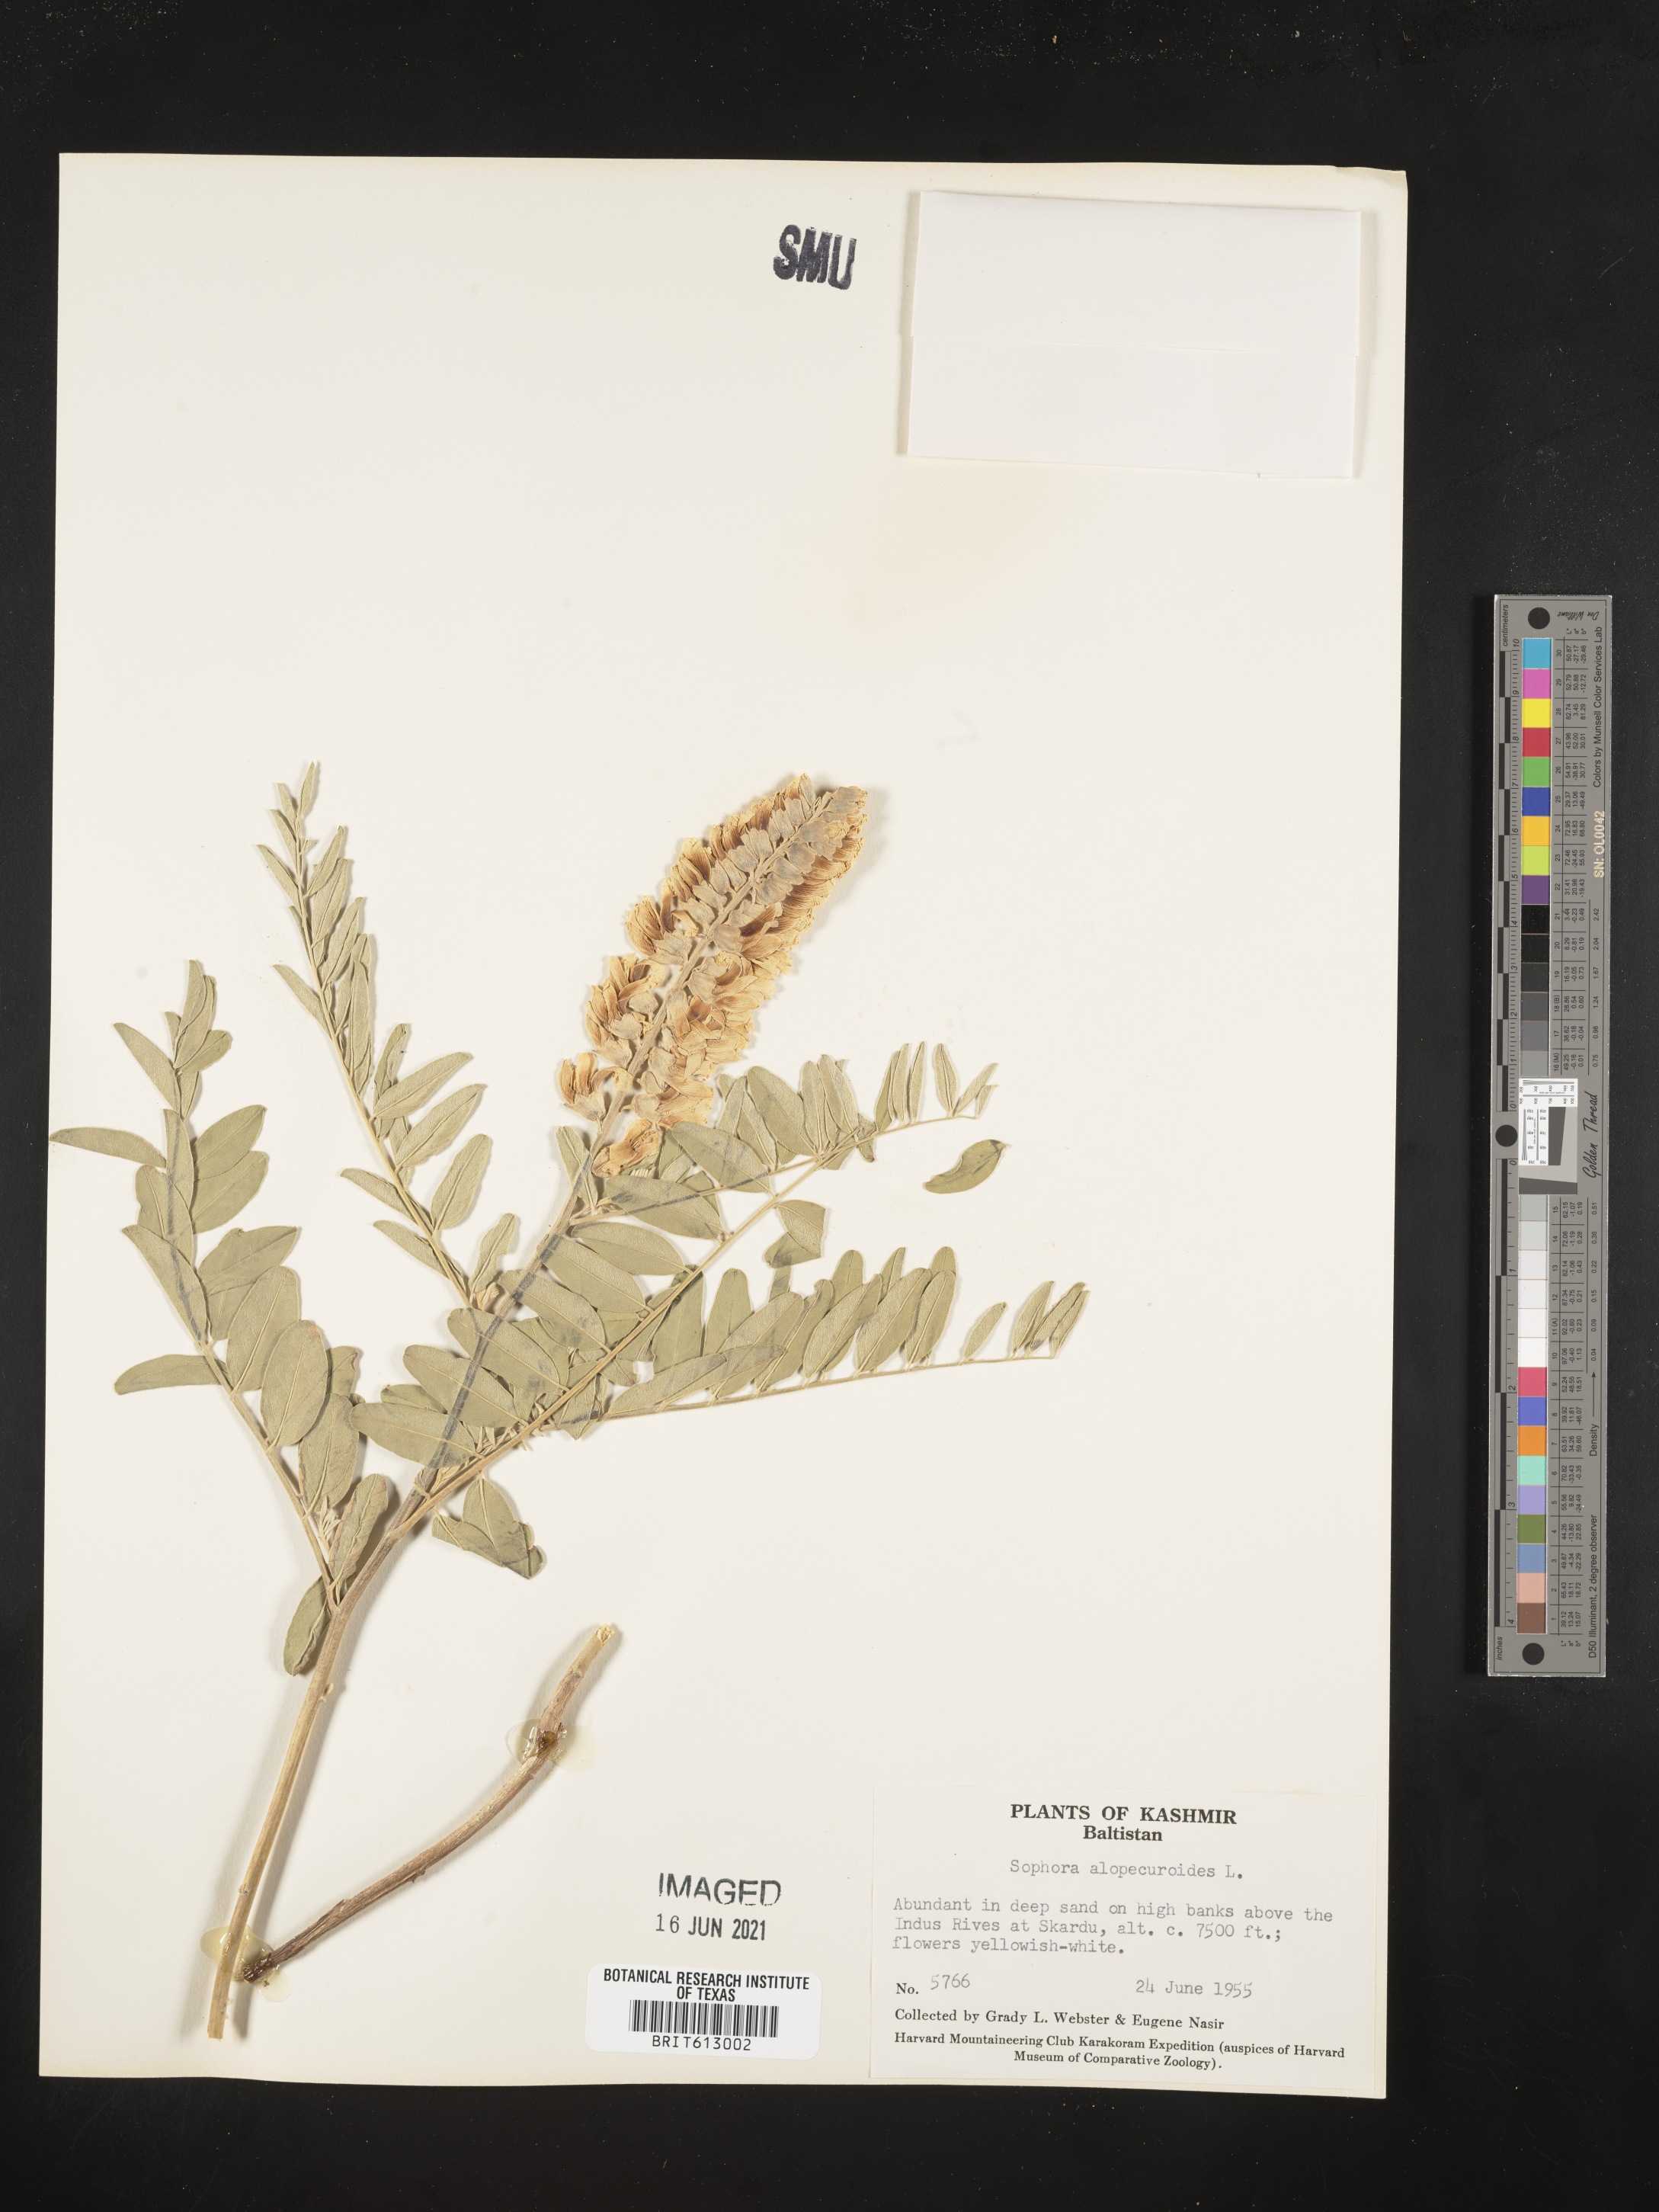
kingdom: Plantae
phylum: Tracheophyta
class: Magnoliopsida
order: Fabales
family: Fabaceae
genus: Sophora
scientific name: Sophora alopecuroides
